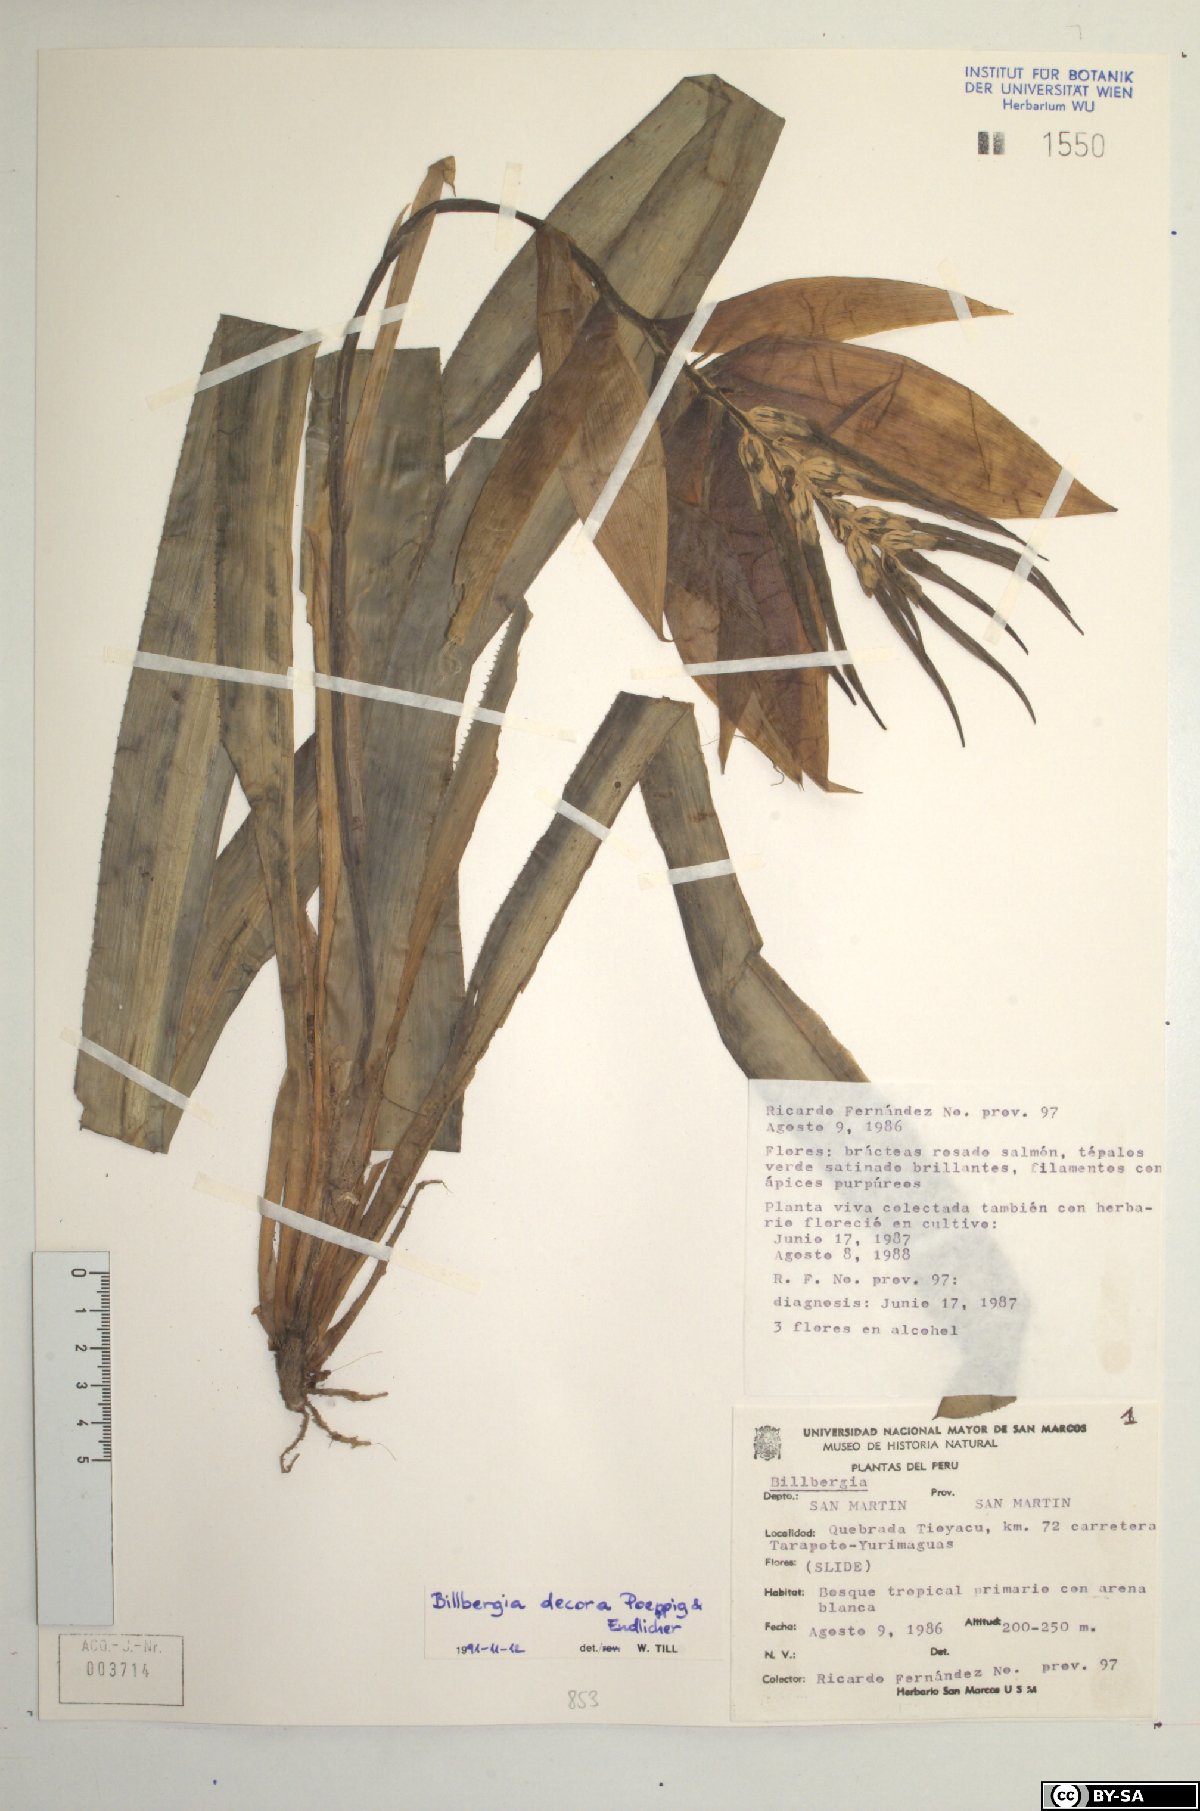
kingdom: Plantae
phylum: Tracheophyta
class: Liliopsida
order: Poales
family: Bromeliaceae
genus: Billbergia
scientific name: Billbergia decora
